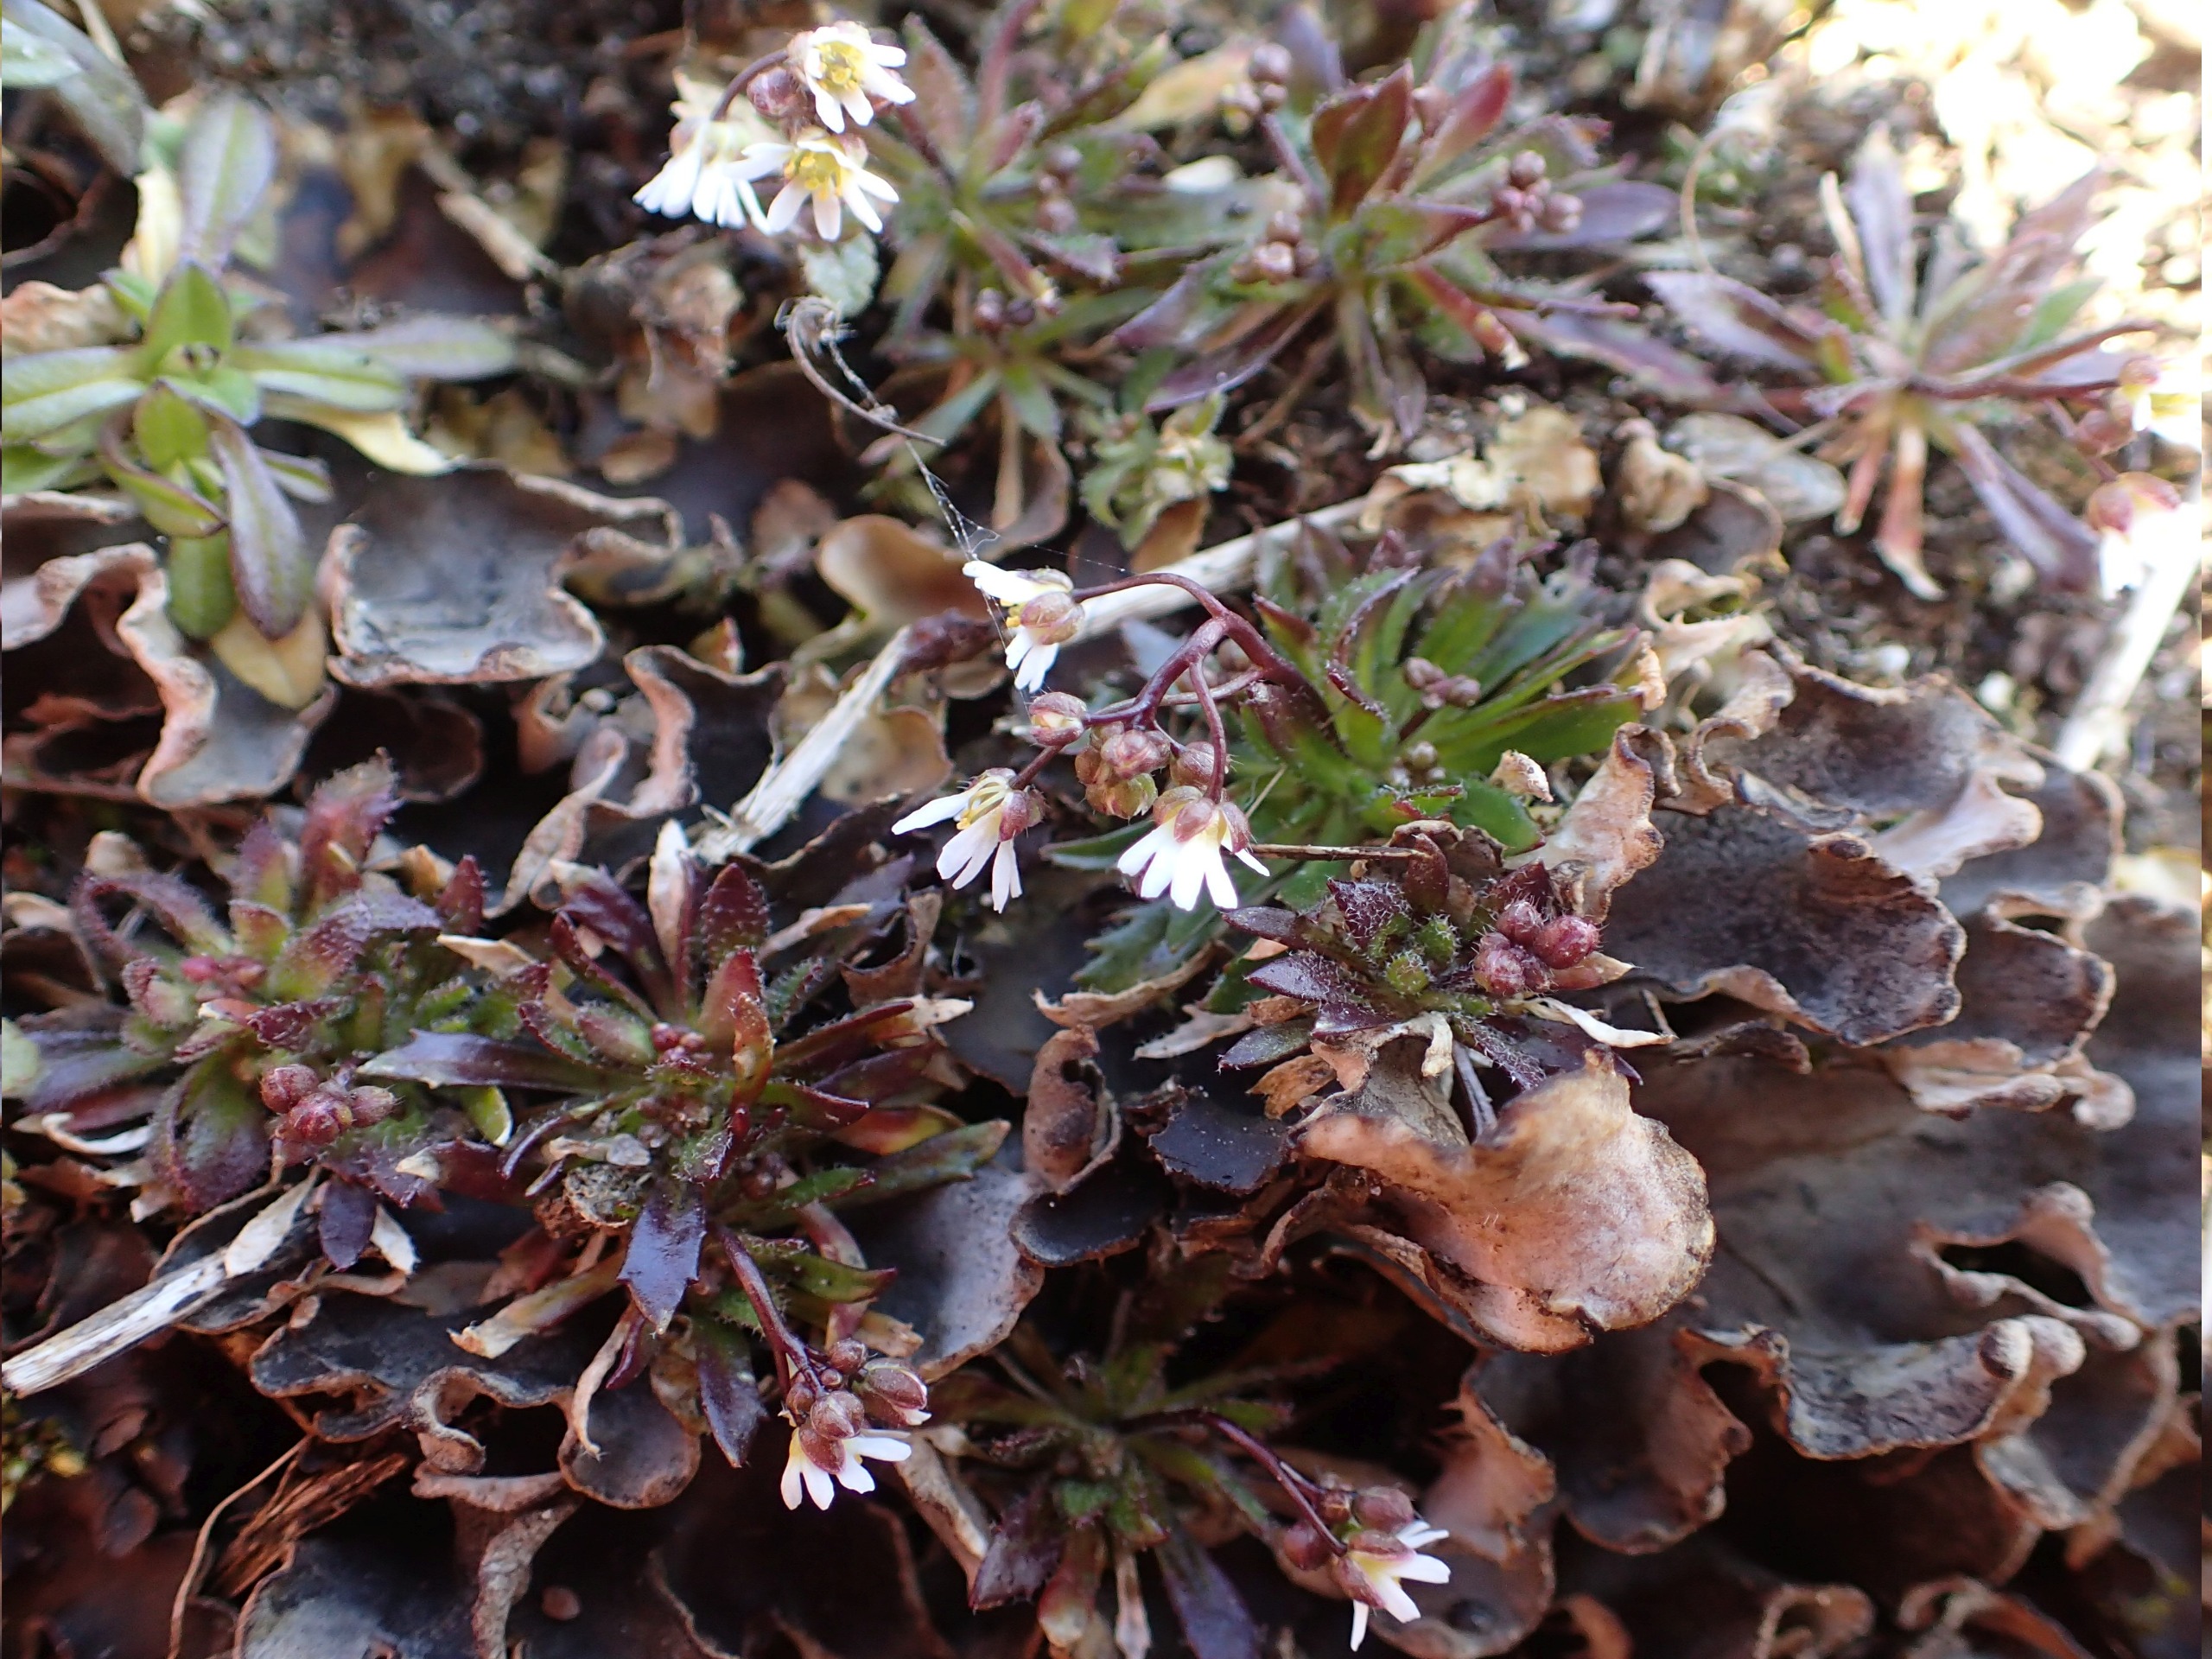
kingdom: Plantae
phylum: Tracheophyta
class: Magnoliopsida
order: Brassicales
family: Brassicaceae
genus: Draba
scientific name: Draba verna
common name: Vår-gæslingeblomst
